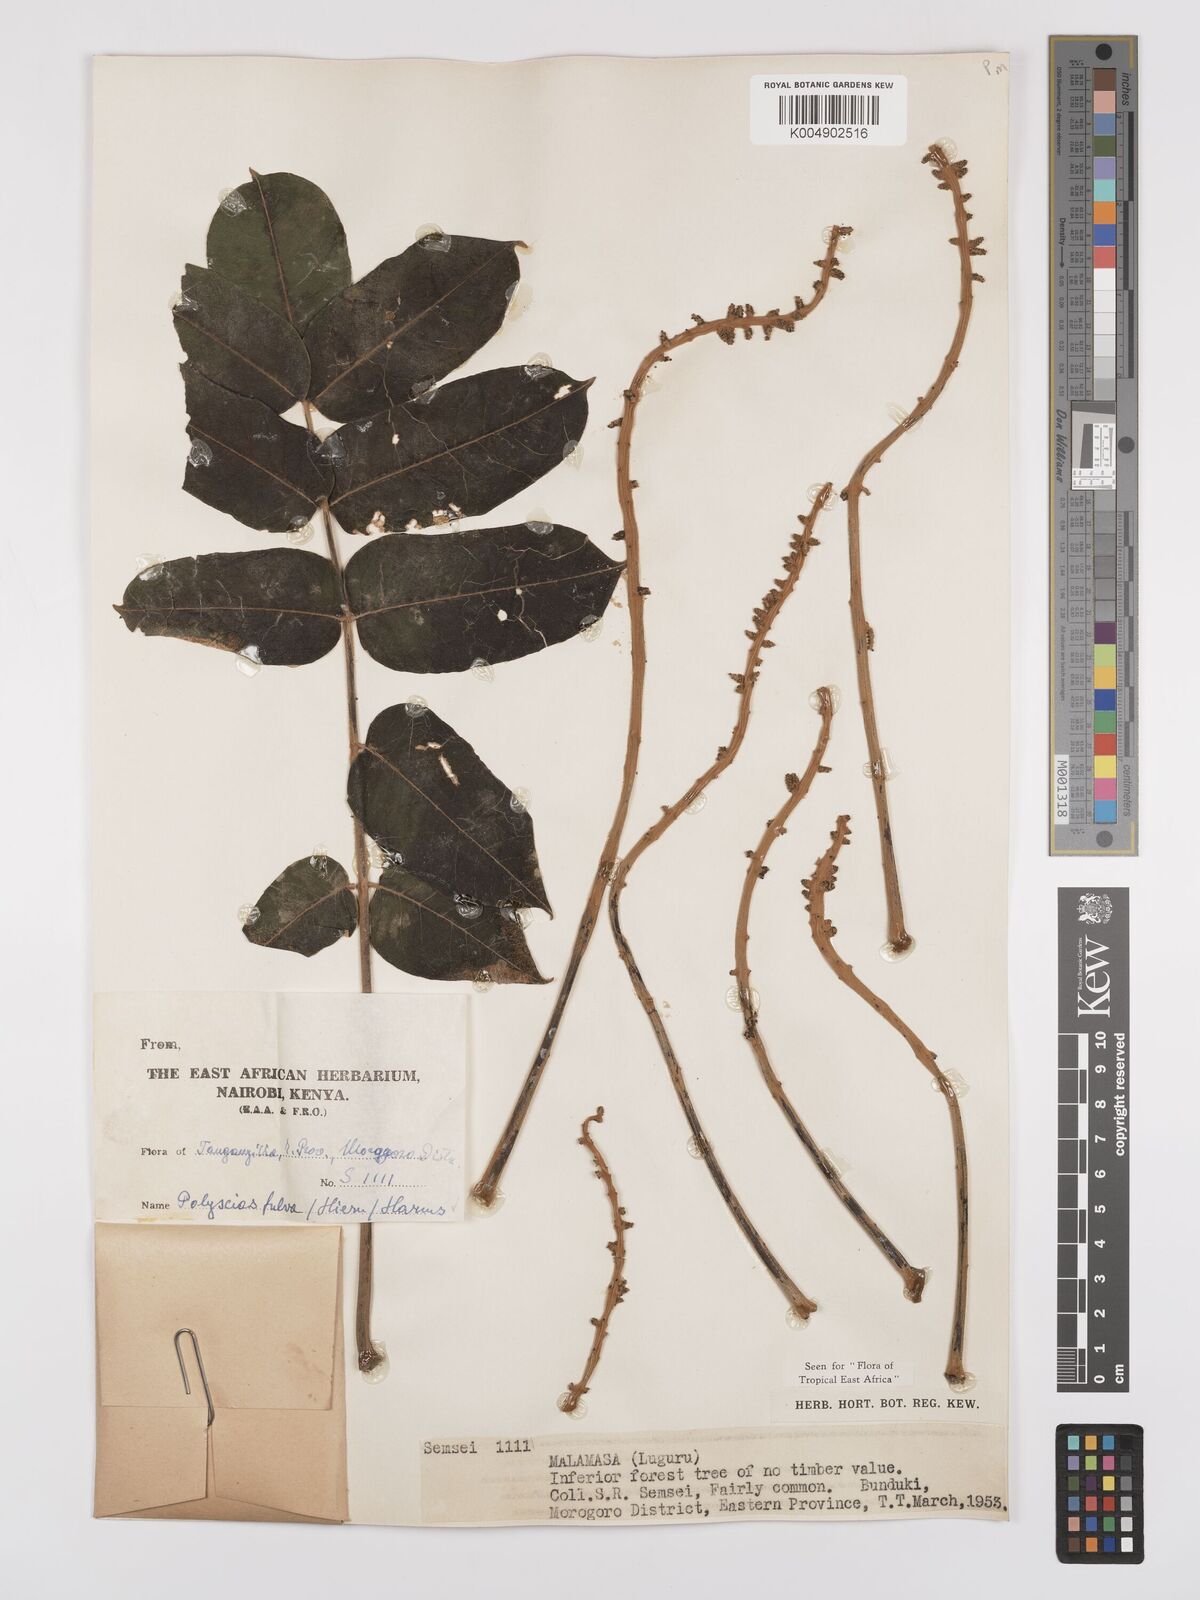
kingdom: Plantae
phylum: Tracheophyta
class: Magnoliopsida
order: Apiales
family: Araliaceae
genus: Polyscias
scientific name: Polyscias fulva
